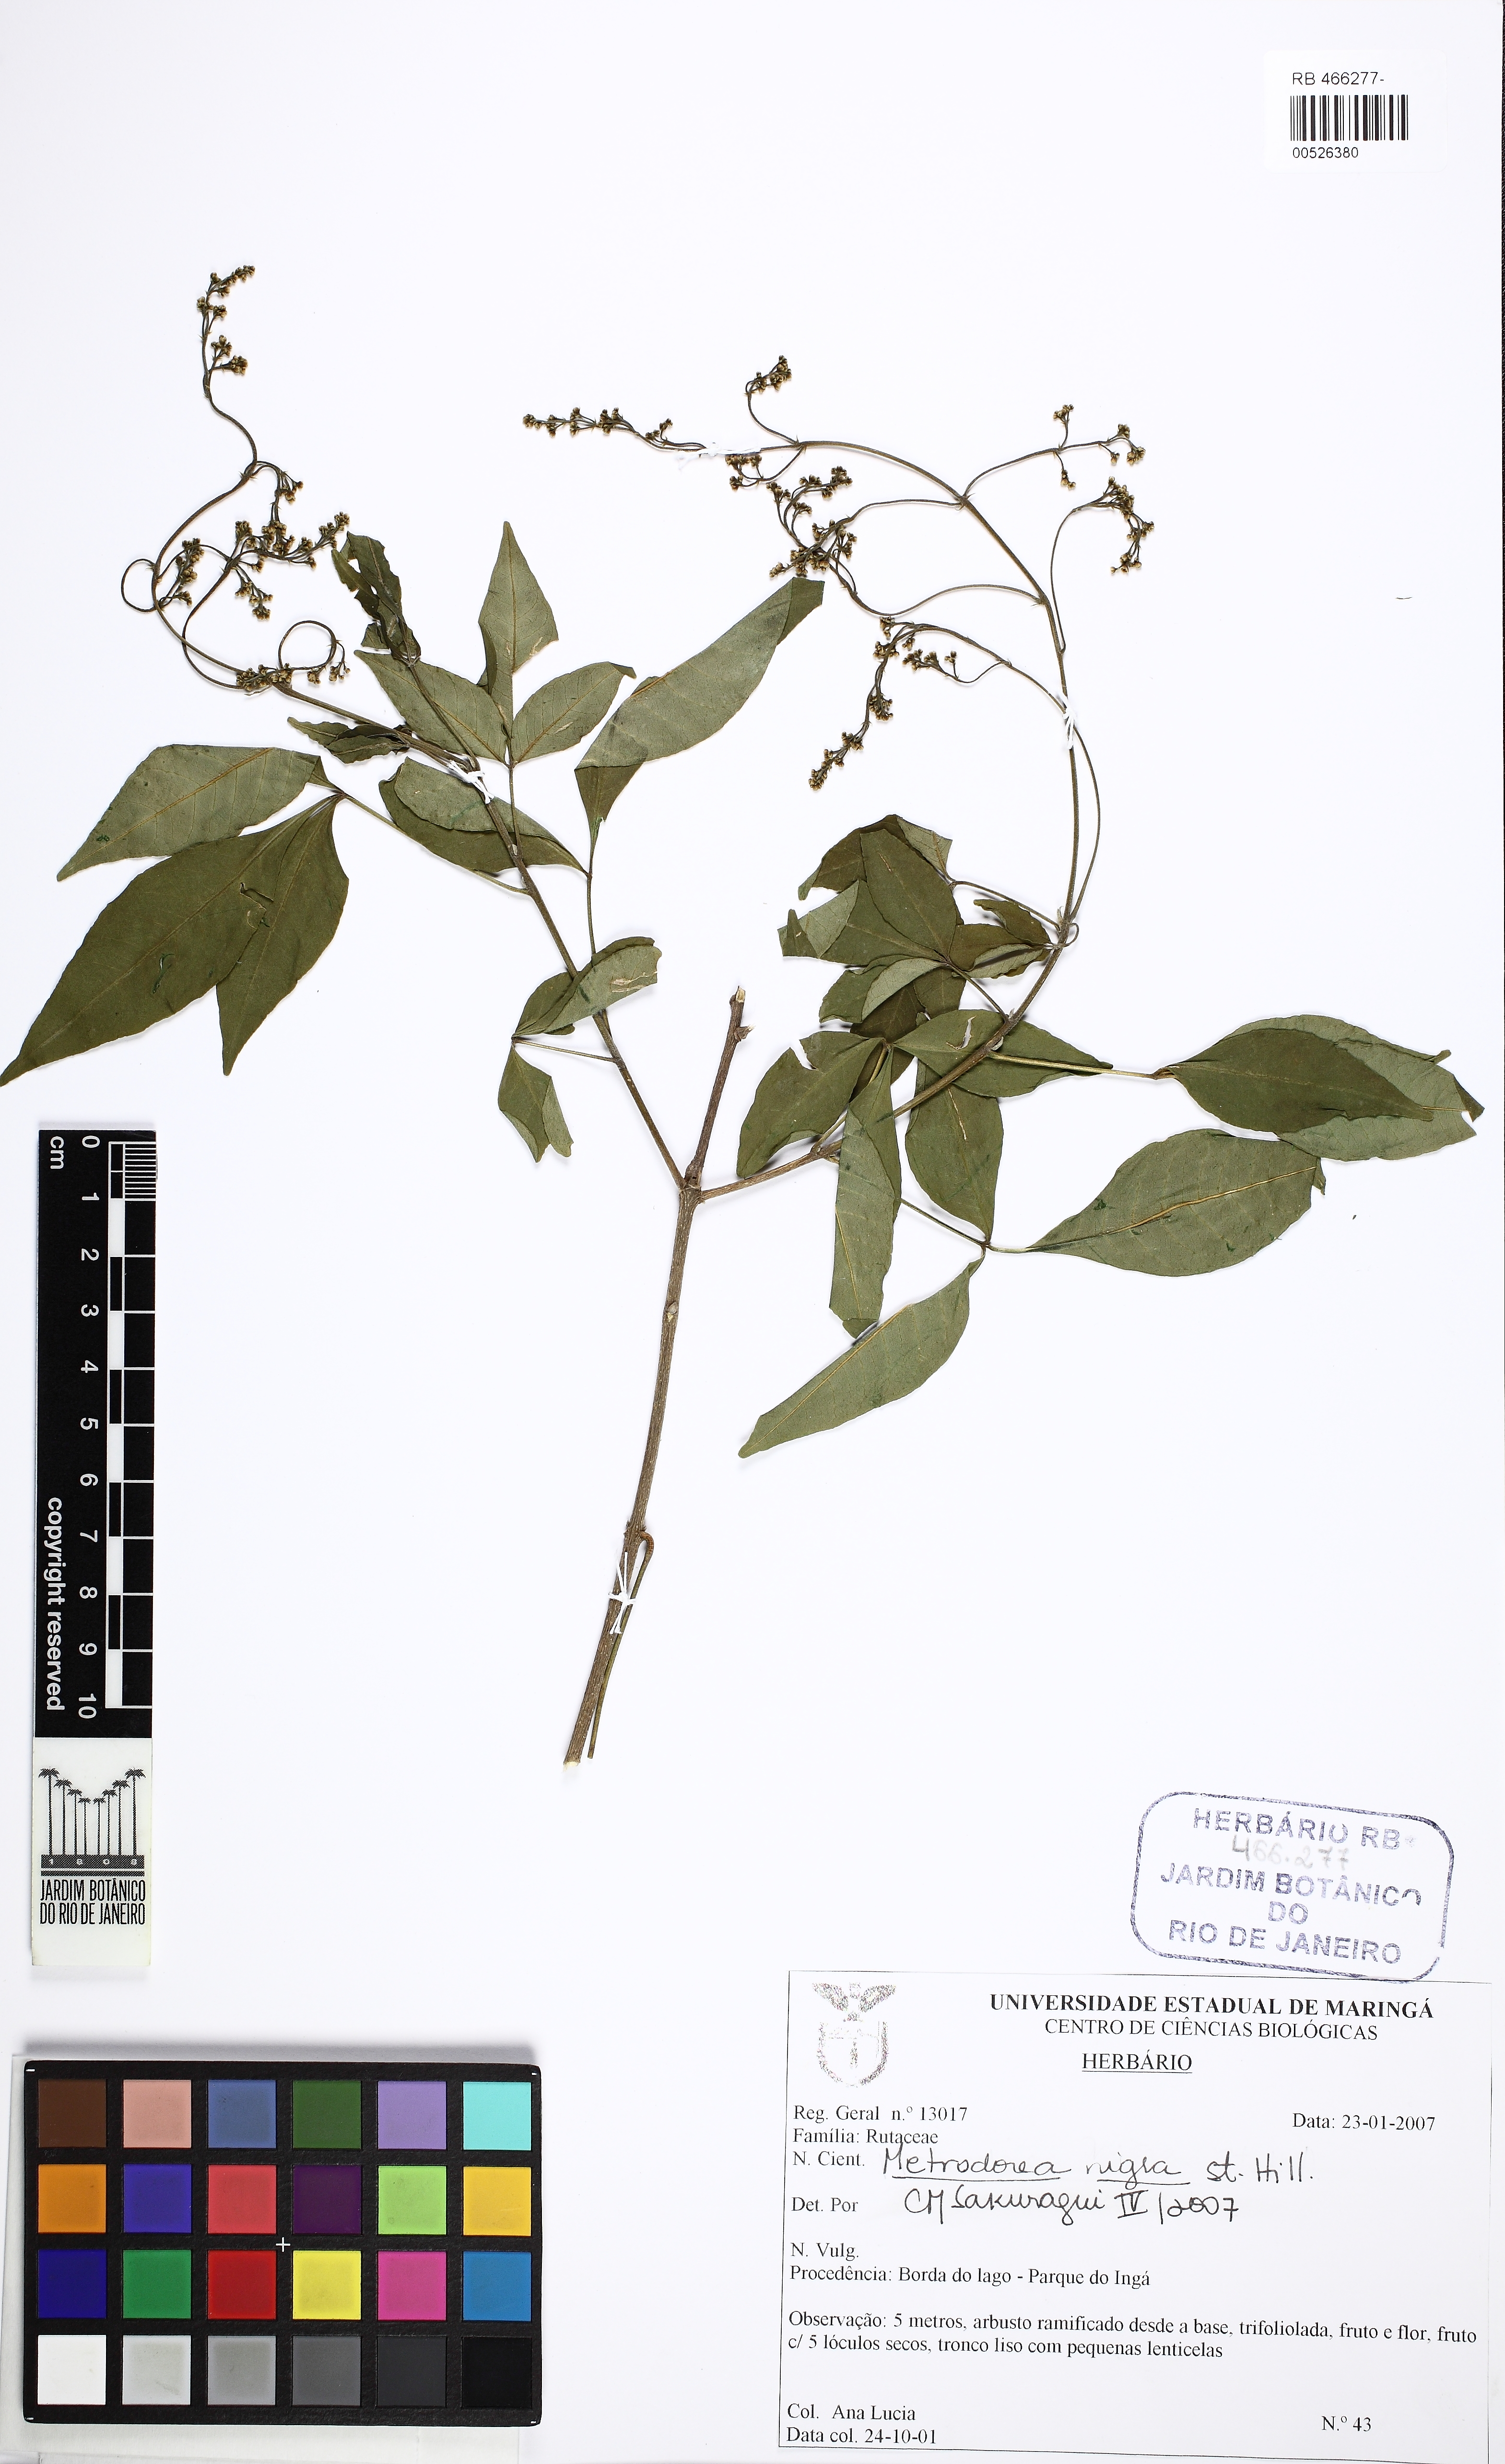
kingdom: Plantae
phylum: Tracheophyta
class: Magnoliopsida
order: Sapindales
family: Rutaceae
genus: Metrodorea
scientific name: Metrodorea nigra
